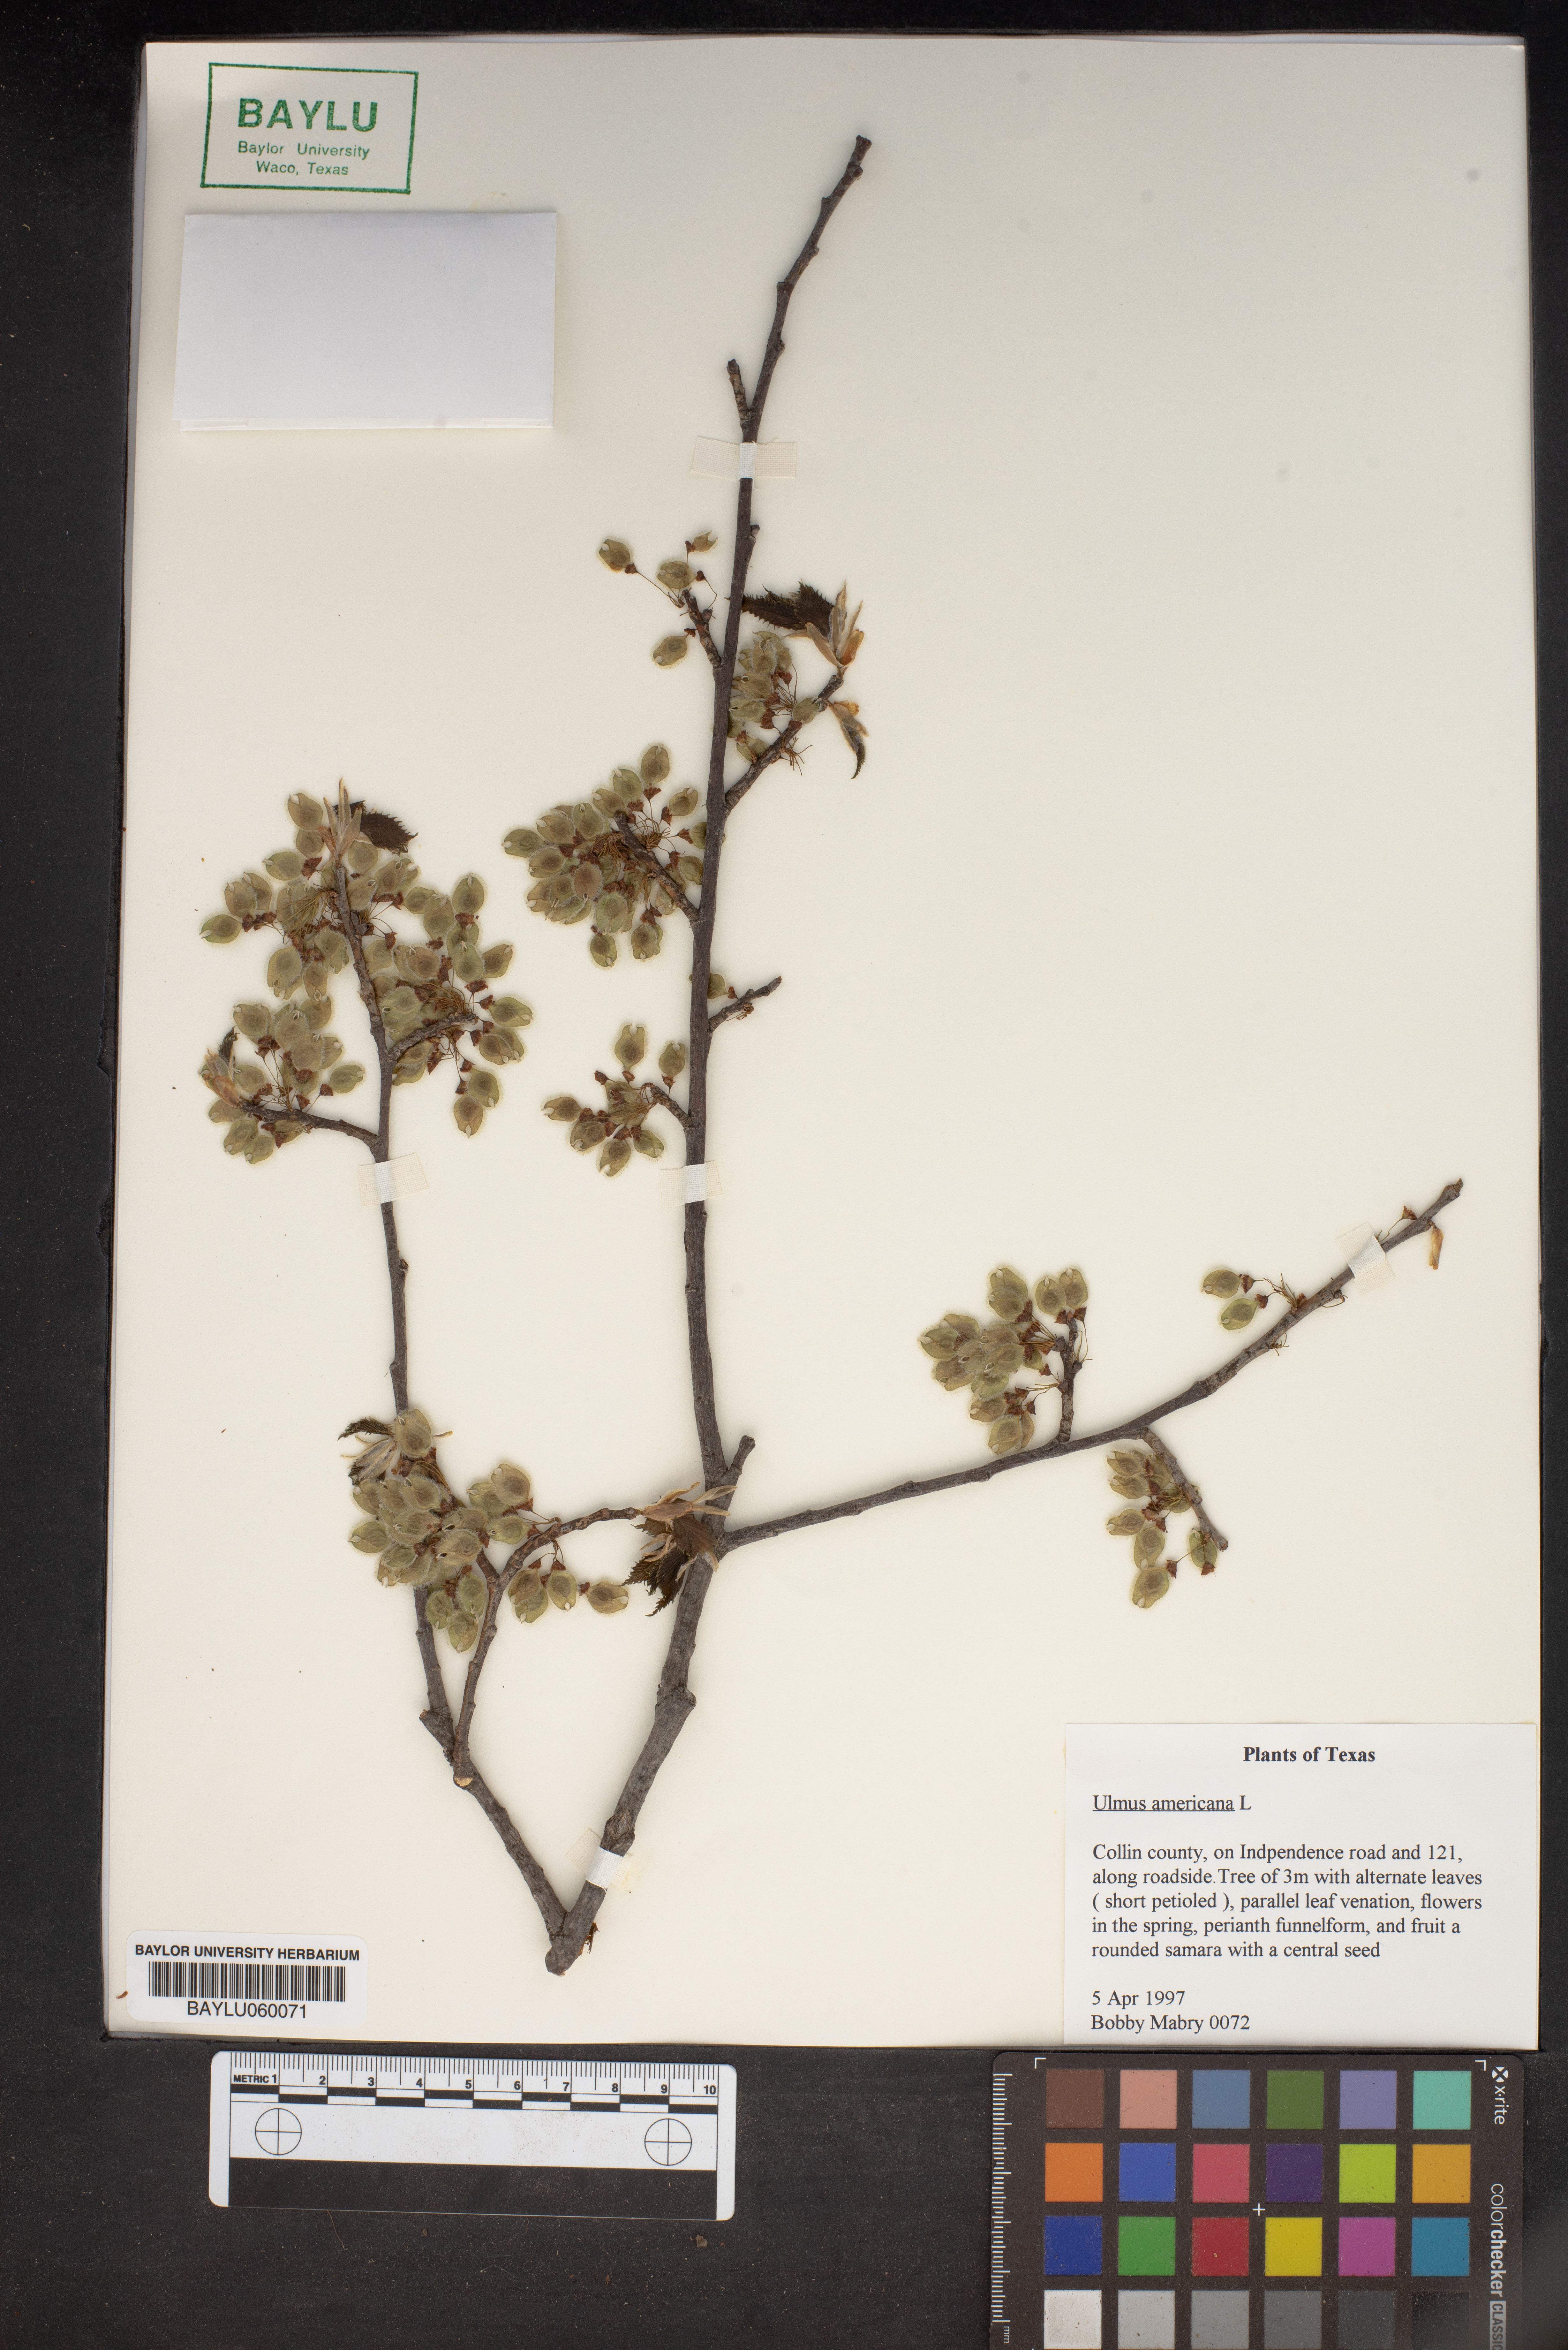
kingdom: Plantae
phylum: Tracheophyta
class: Magnoliopsida
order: Rosales
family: Ulmaceae
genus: Ulmus
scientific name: Ulmus americana
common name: American elm
